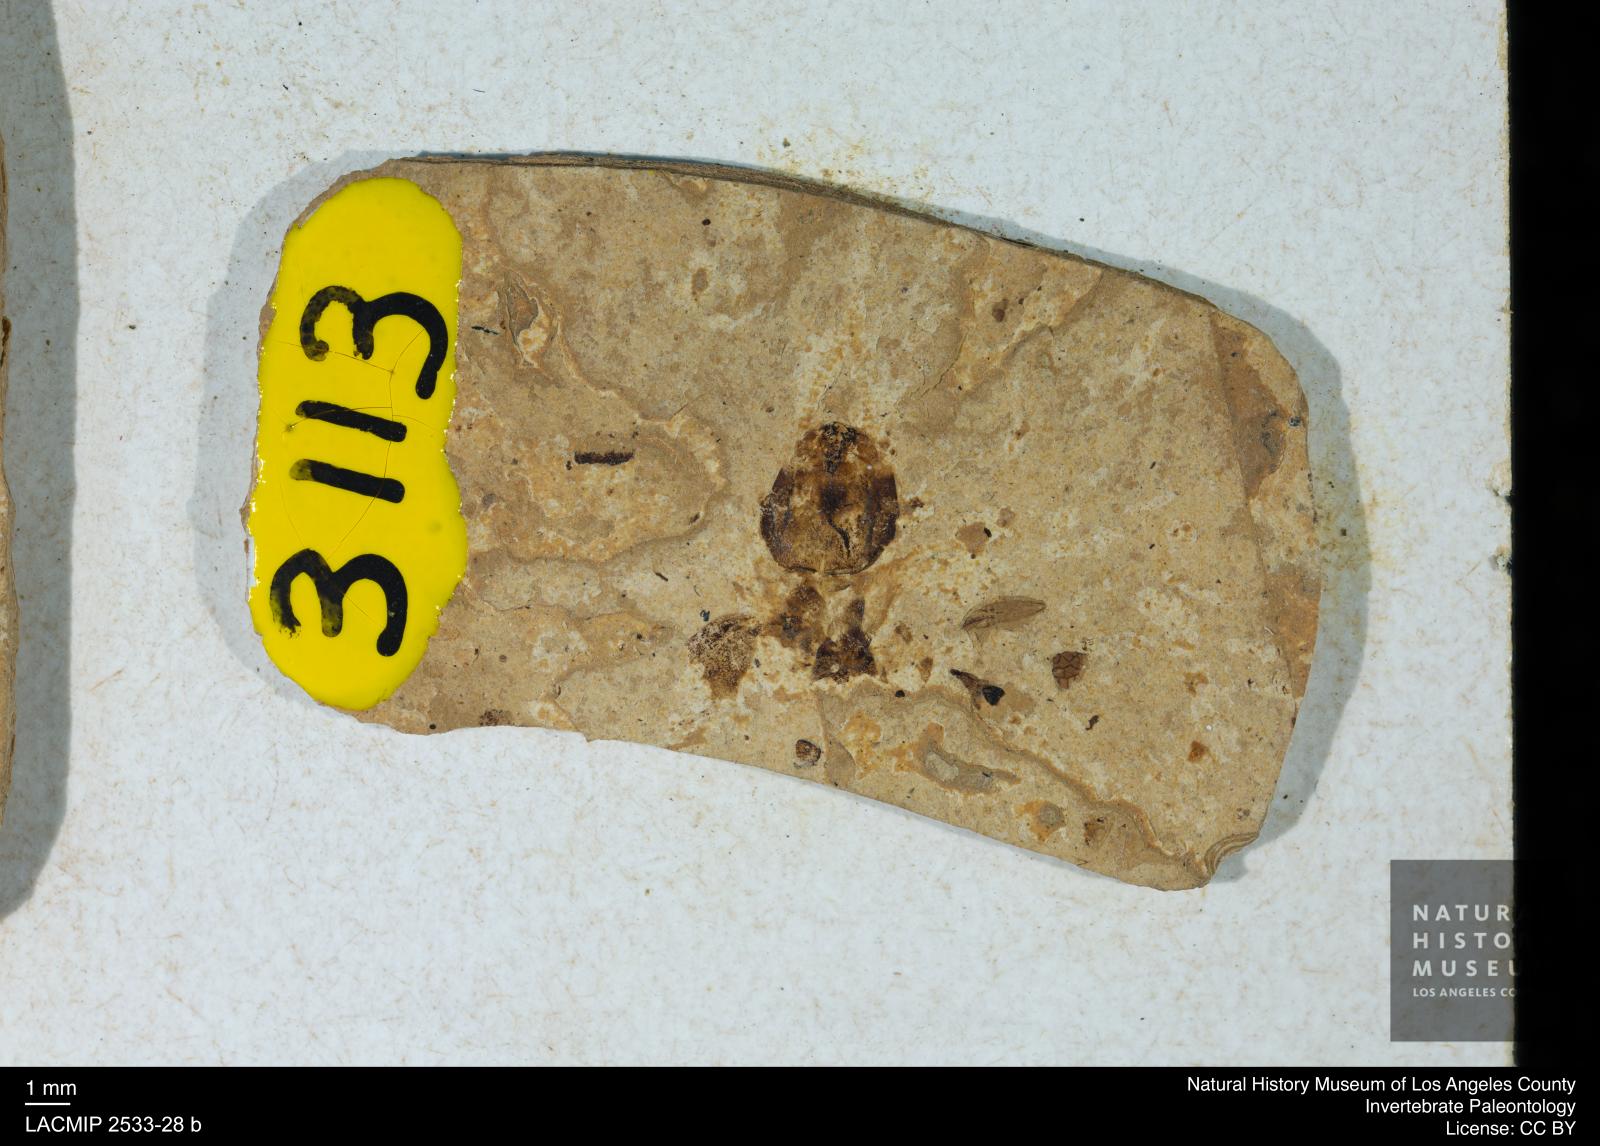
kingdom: Animalia
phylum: Arthropoda
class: Insecta
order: Blattodea
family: Hodotermitidae
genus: Ulmeriella
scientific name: Ulmeriella bauckhorni
